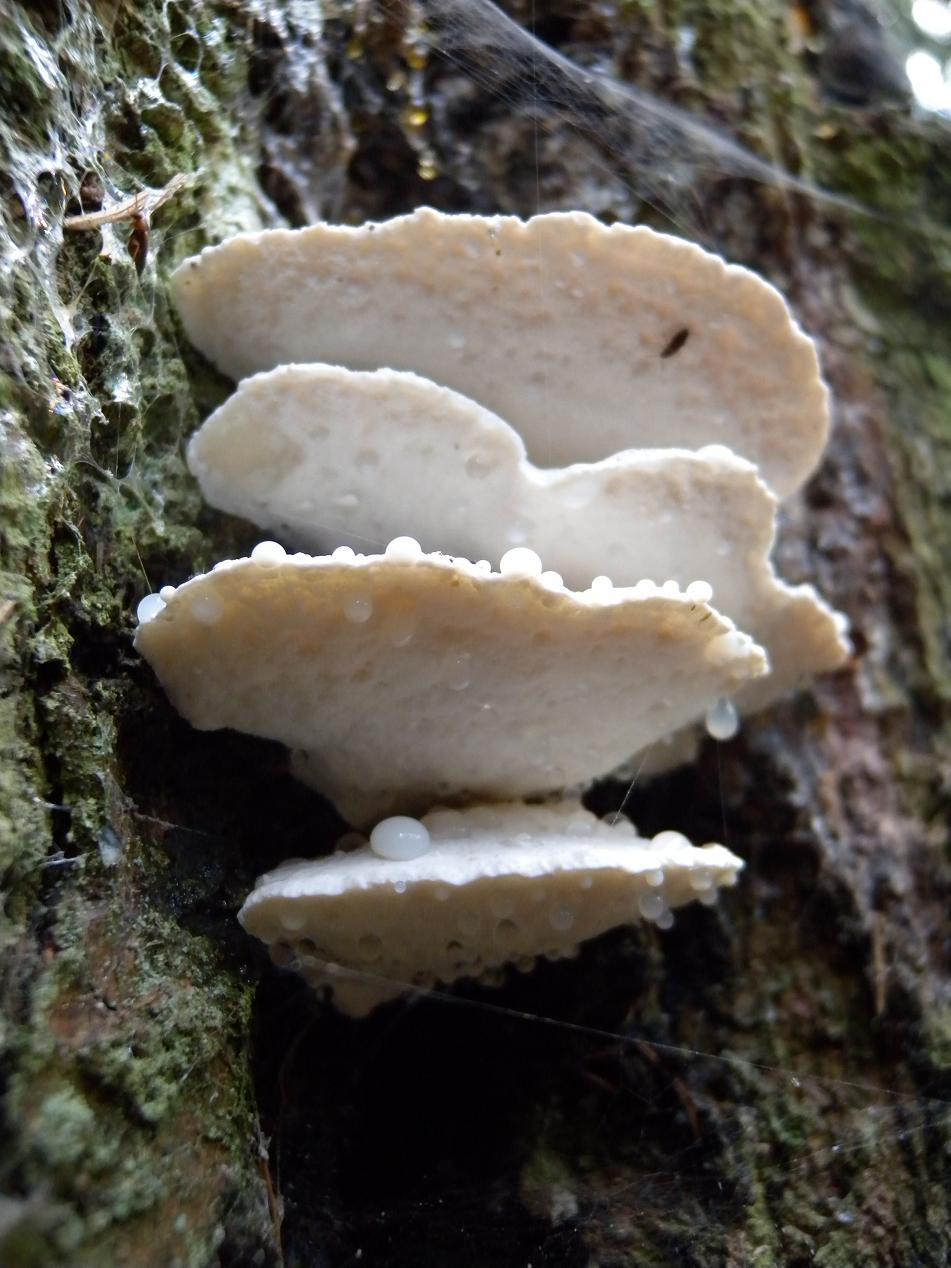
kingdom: Fungi
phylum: Basidiomycota
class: Agaricomycetes
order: Polyporales
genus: Amaropostia
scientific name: Amaropostia stiptica
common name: bitter kødporesvamp
